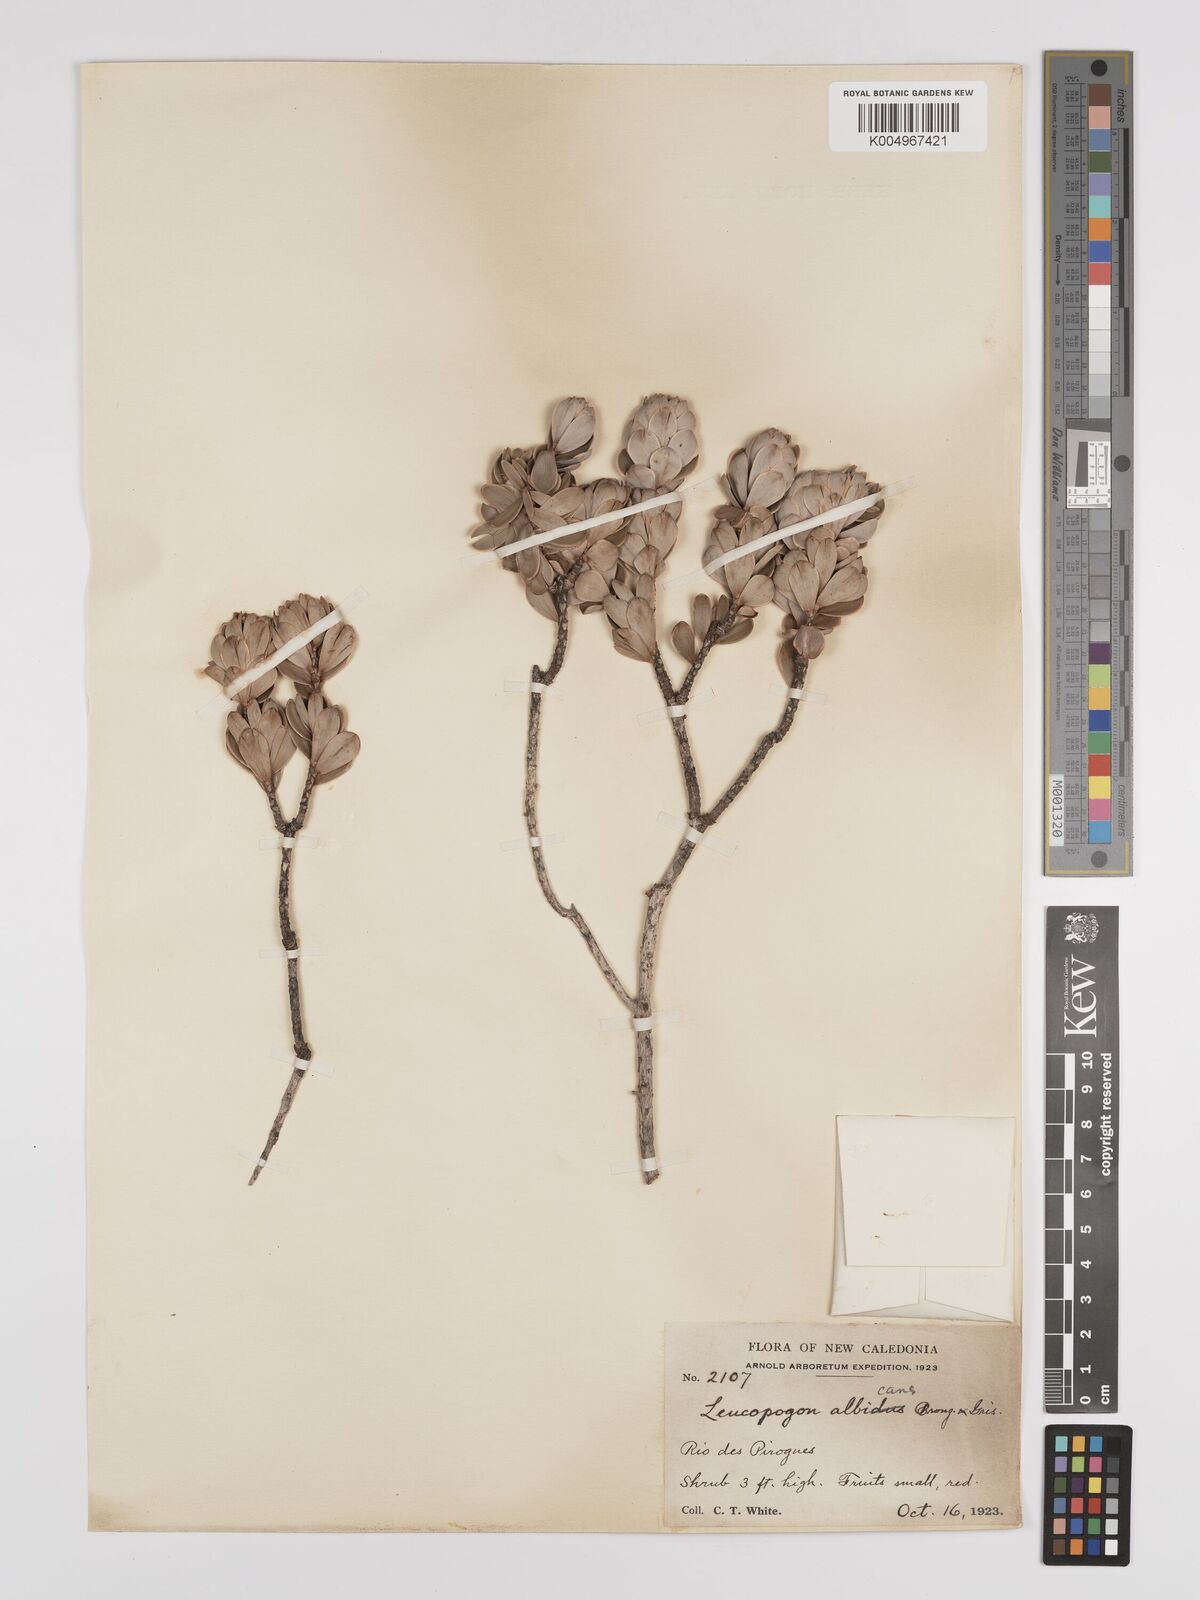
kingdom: Plantae
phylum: Tracheophyta
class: Magnoliopsida
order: Ericales
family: Ericaceae
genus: Cyathopsis
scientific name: Cyathopsis albicans
